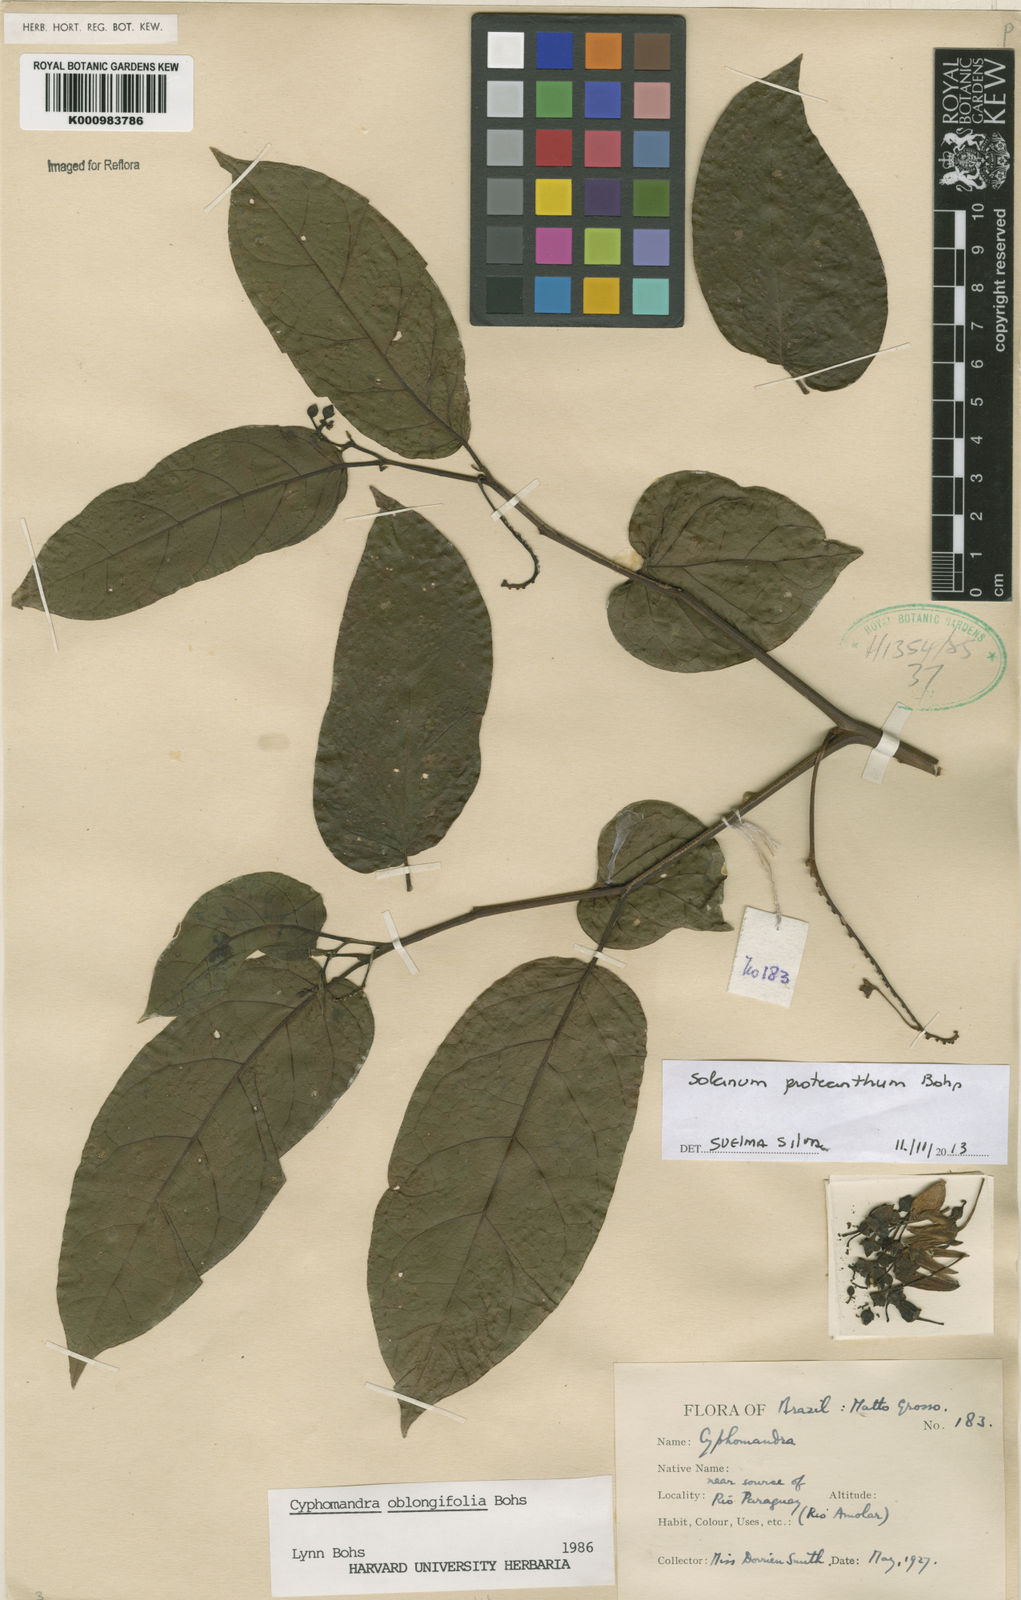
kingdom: Plantae
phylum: Tracheophyta
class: Magnoliopsida
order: Solanales
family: Solanaceae
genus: Solanum
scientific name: Solanum proteanthum
